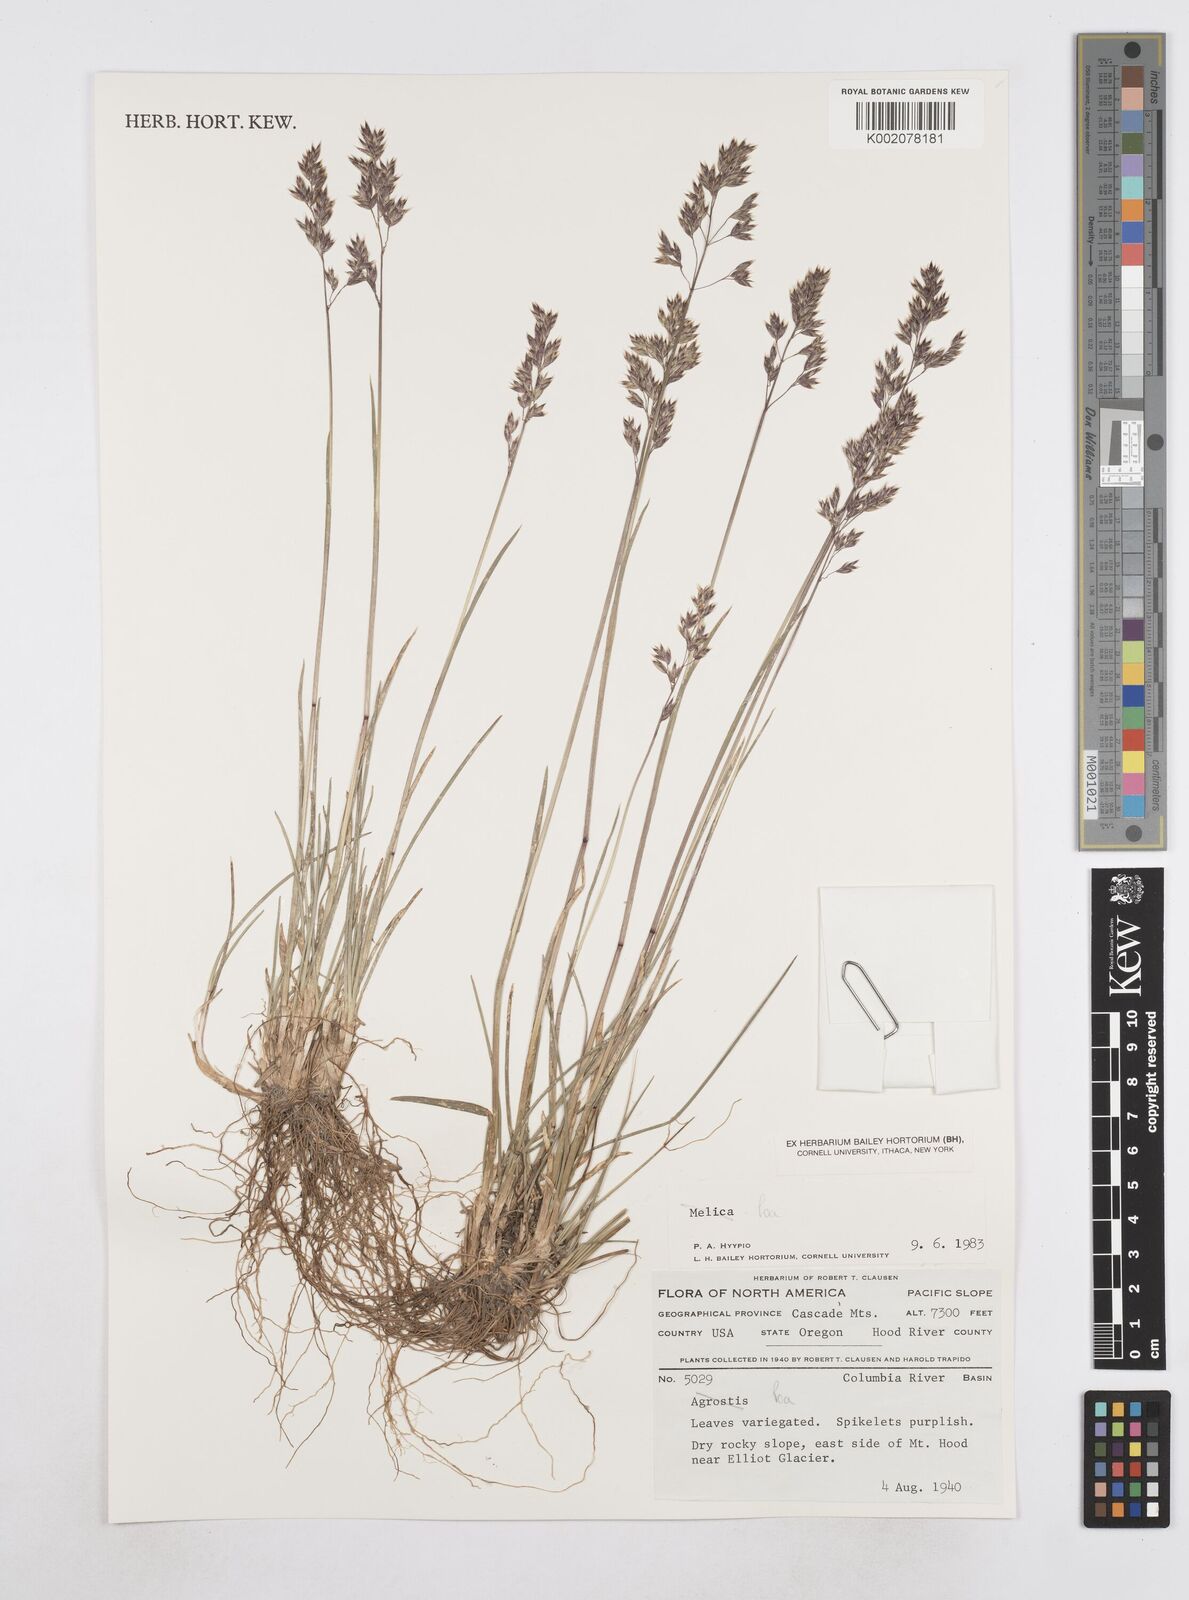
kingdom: Plantae
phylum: Tracheophyta
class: Liliopsida
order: Poales
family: Poaceae
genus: Poa
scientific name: Poa
